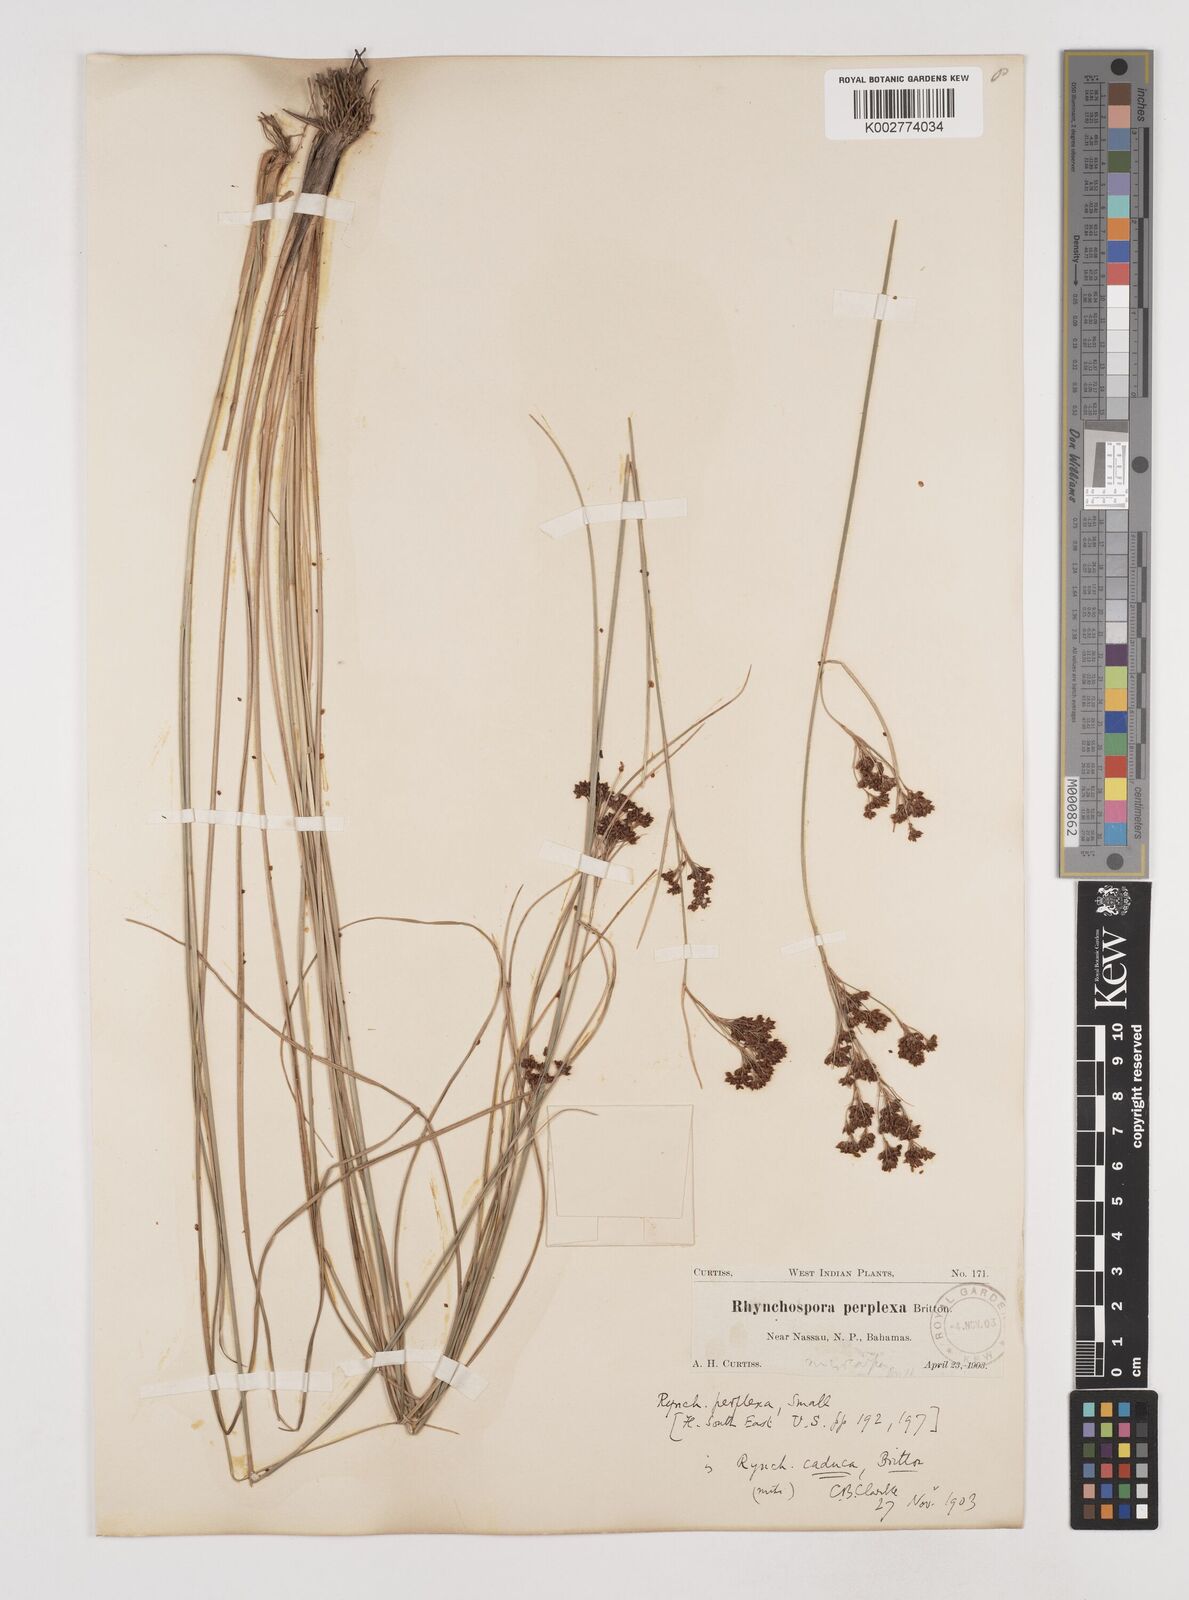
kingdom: Plantae
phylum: Tracheophyta
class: Liliopsida
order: Poales
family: Cyperaceae
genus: Rhynchospora
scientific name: Rhynchospora perplexa
